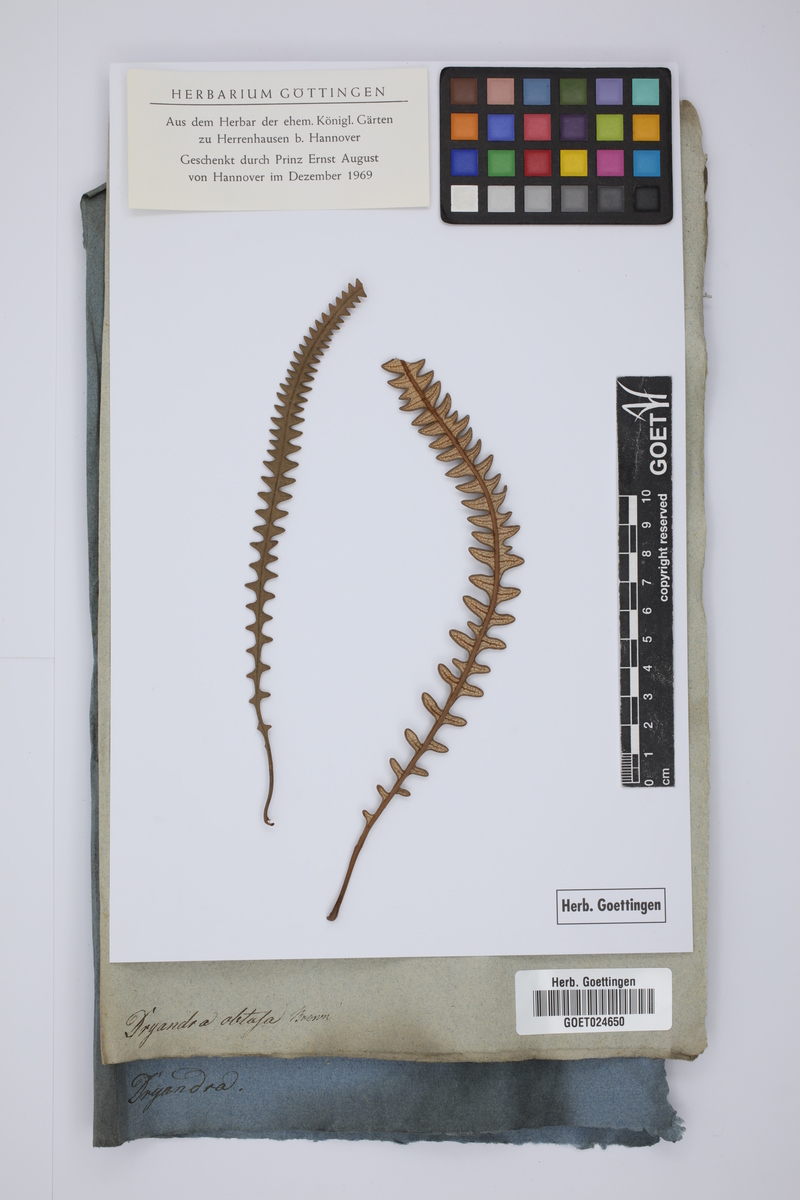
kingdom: Plantae
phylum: Tracheophyta
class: Magnoliopsida
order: Proteales
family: Proteaceae
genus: Banksia
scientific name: Banksia obtusa
